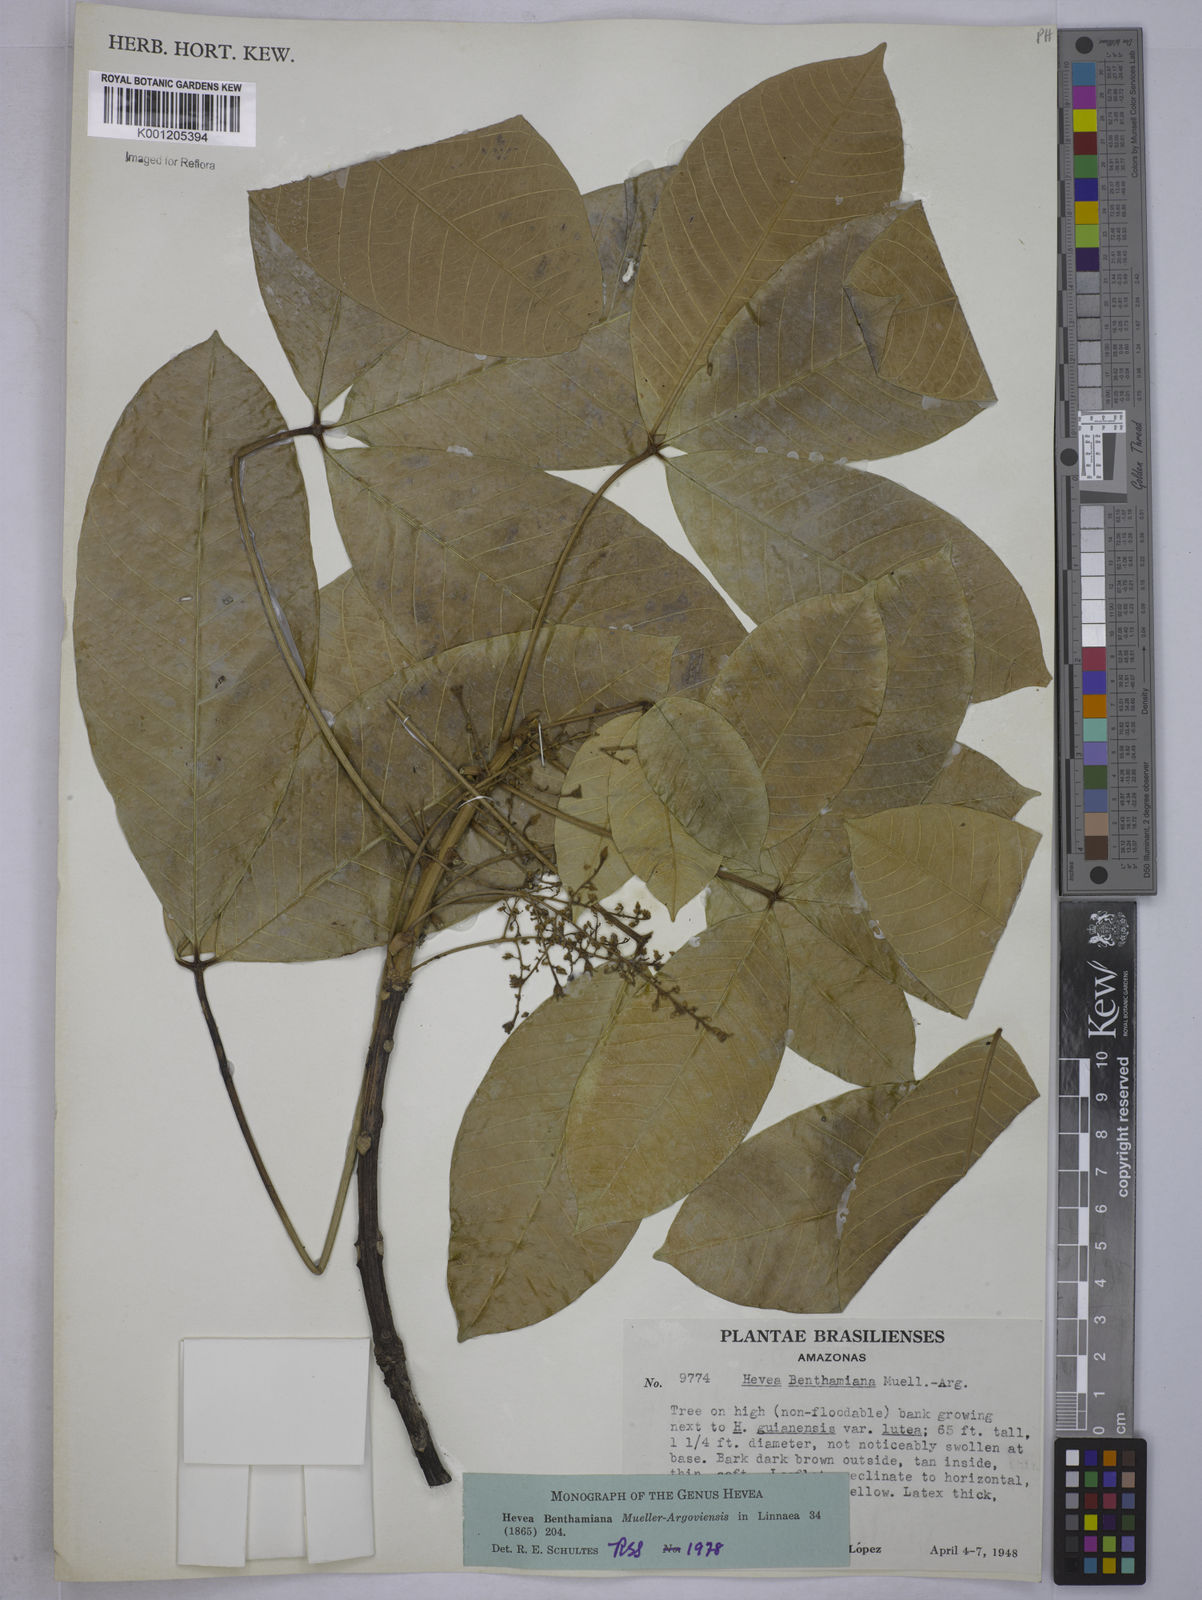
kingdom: Plantae
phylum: Tracheophyta
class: Magnoliopsida
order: Malpighiales
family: Euphorbiaceae
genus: Hevea
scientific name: Hevea
